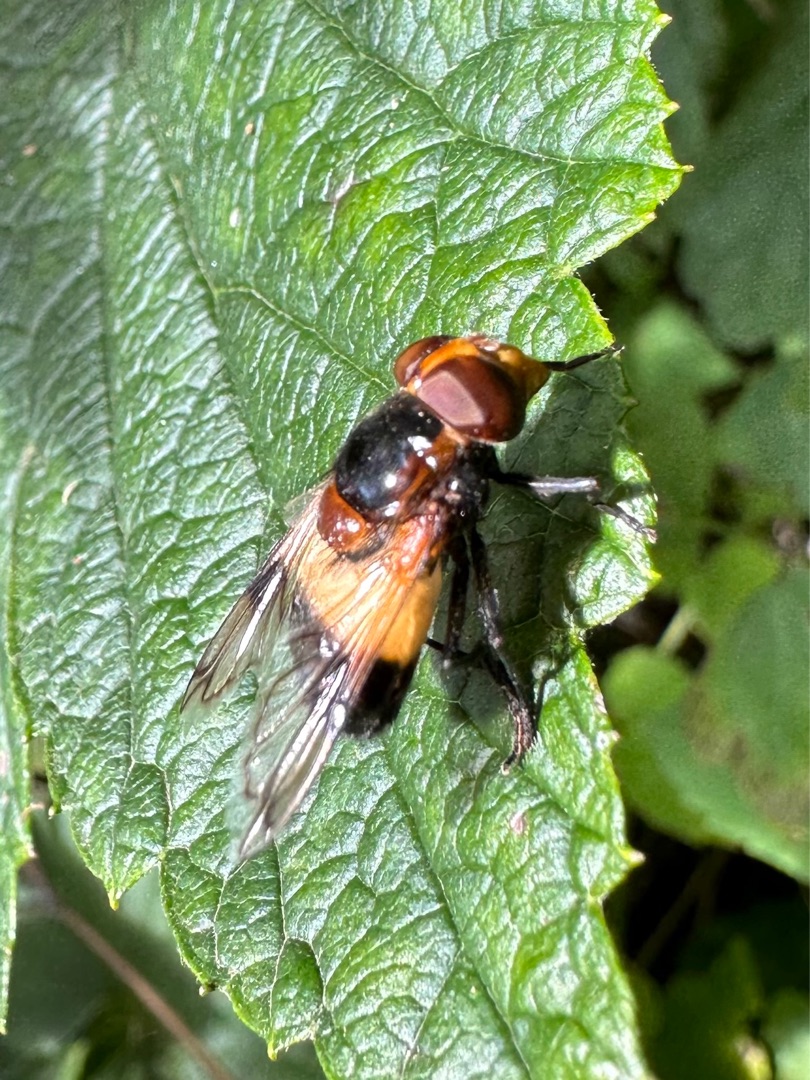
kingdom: Animalia
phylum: Arthropoda
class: Insecta
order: Diptera
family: Syrphidae
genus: Volucella
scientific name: Volucella pellucens
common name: Hvidbåndet humlesvirreflue
